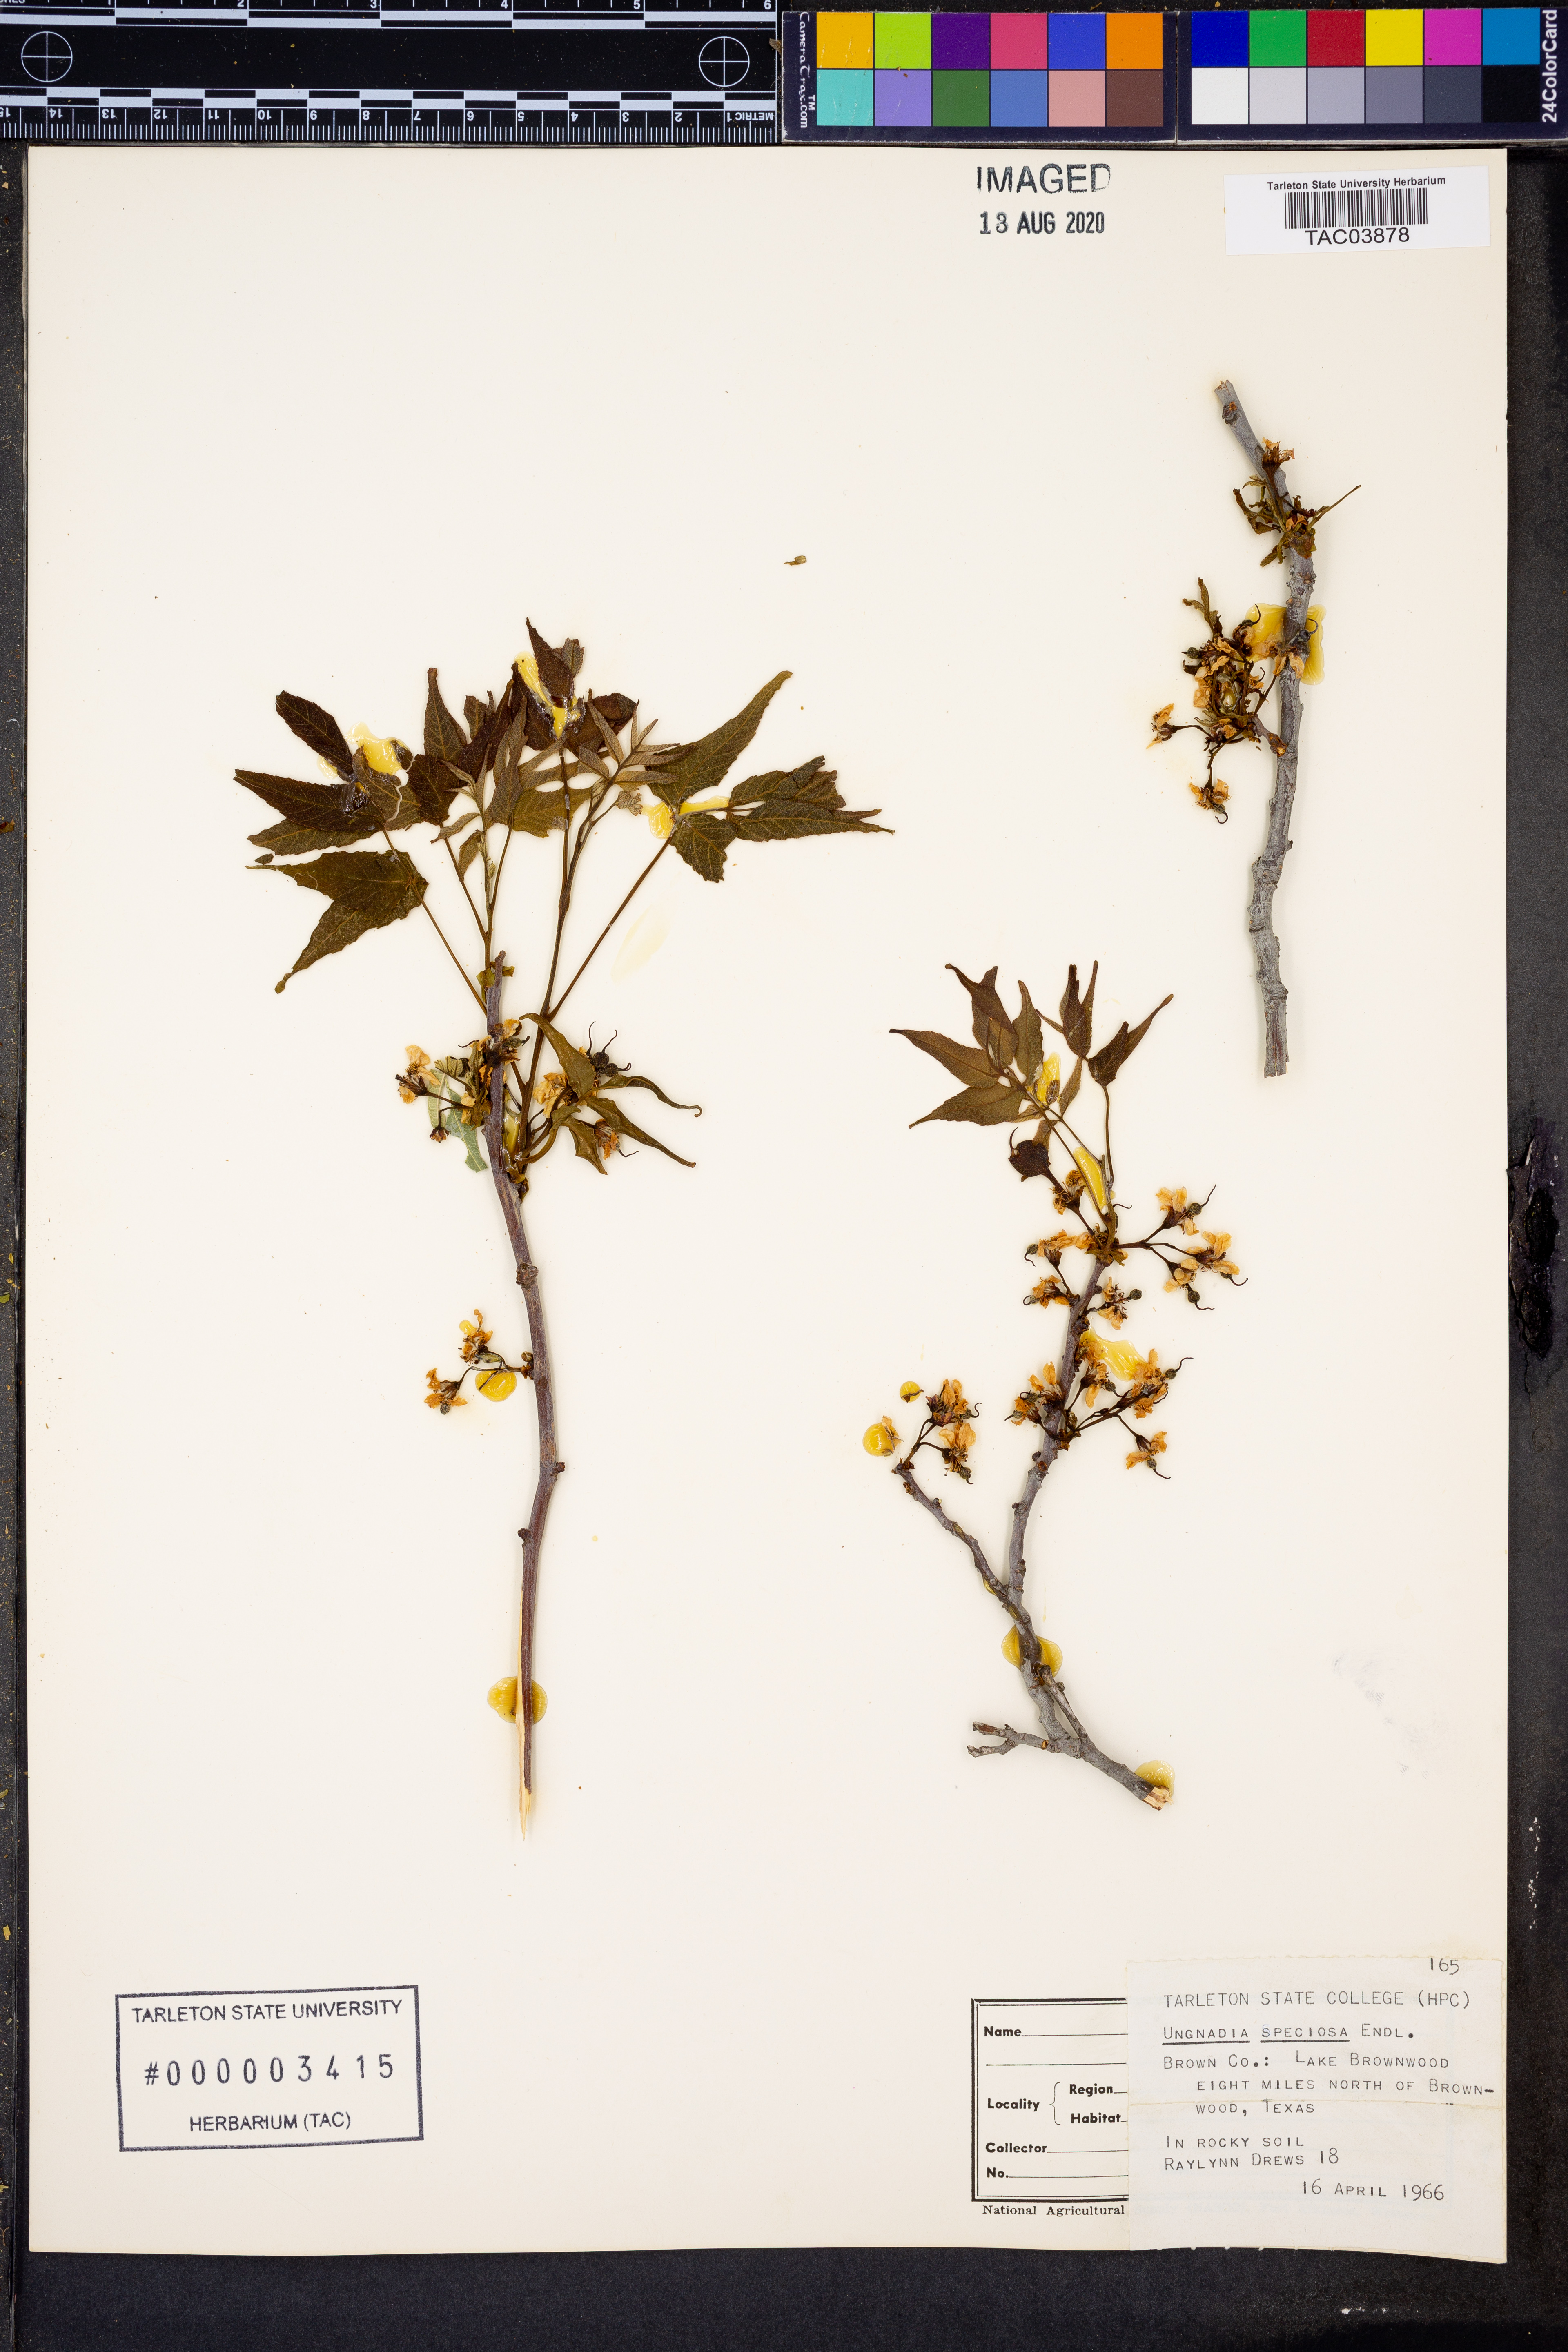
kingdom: Plantae
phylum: Tracheophyta
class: Magnoliopsida
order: Sapindales
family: Sapindaceae
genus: Ungnadia
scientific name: Ungnadia speciosa
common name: Texas-buckeye
